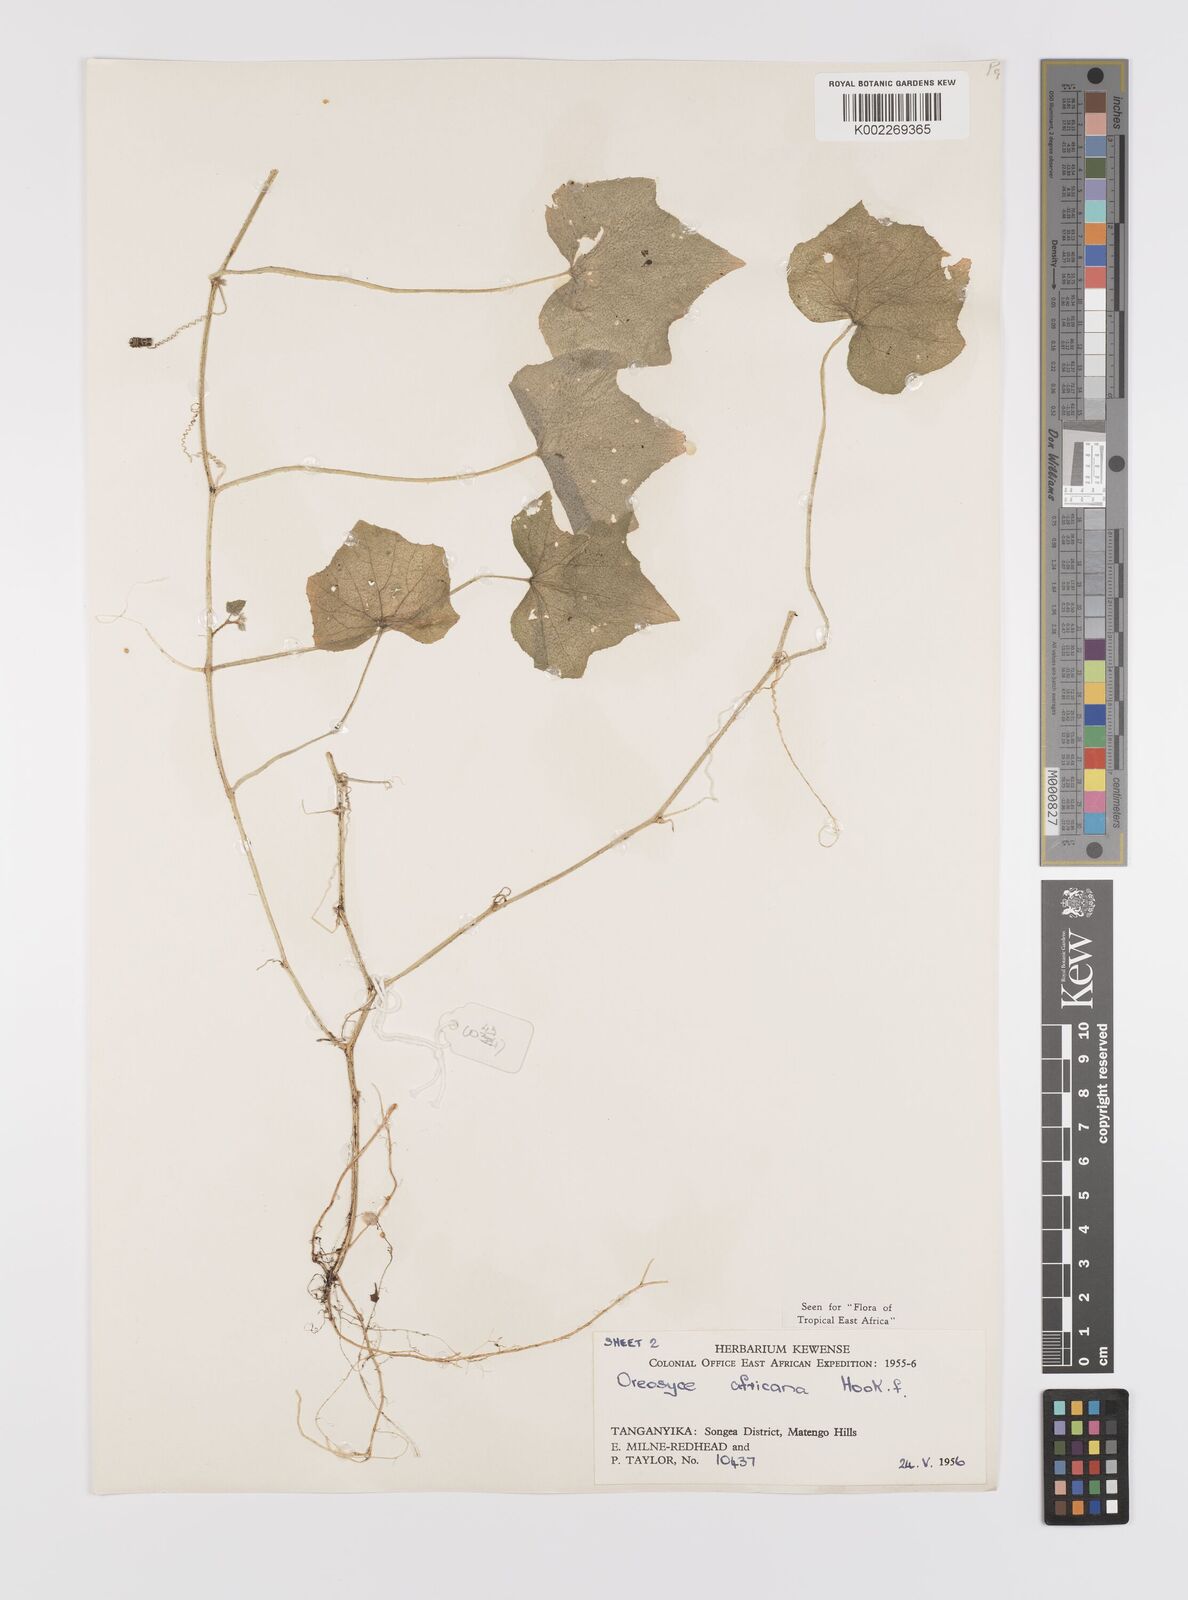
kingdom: Plantae
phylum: Tracheophyta
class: Magnoliopsida
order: Cucurbitales
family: Cucurbitaceae
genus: Cucumis
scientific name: Cucumis oreosyce
